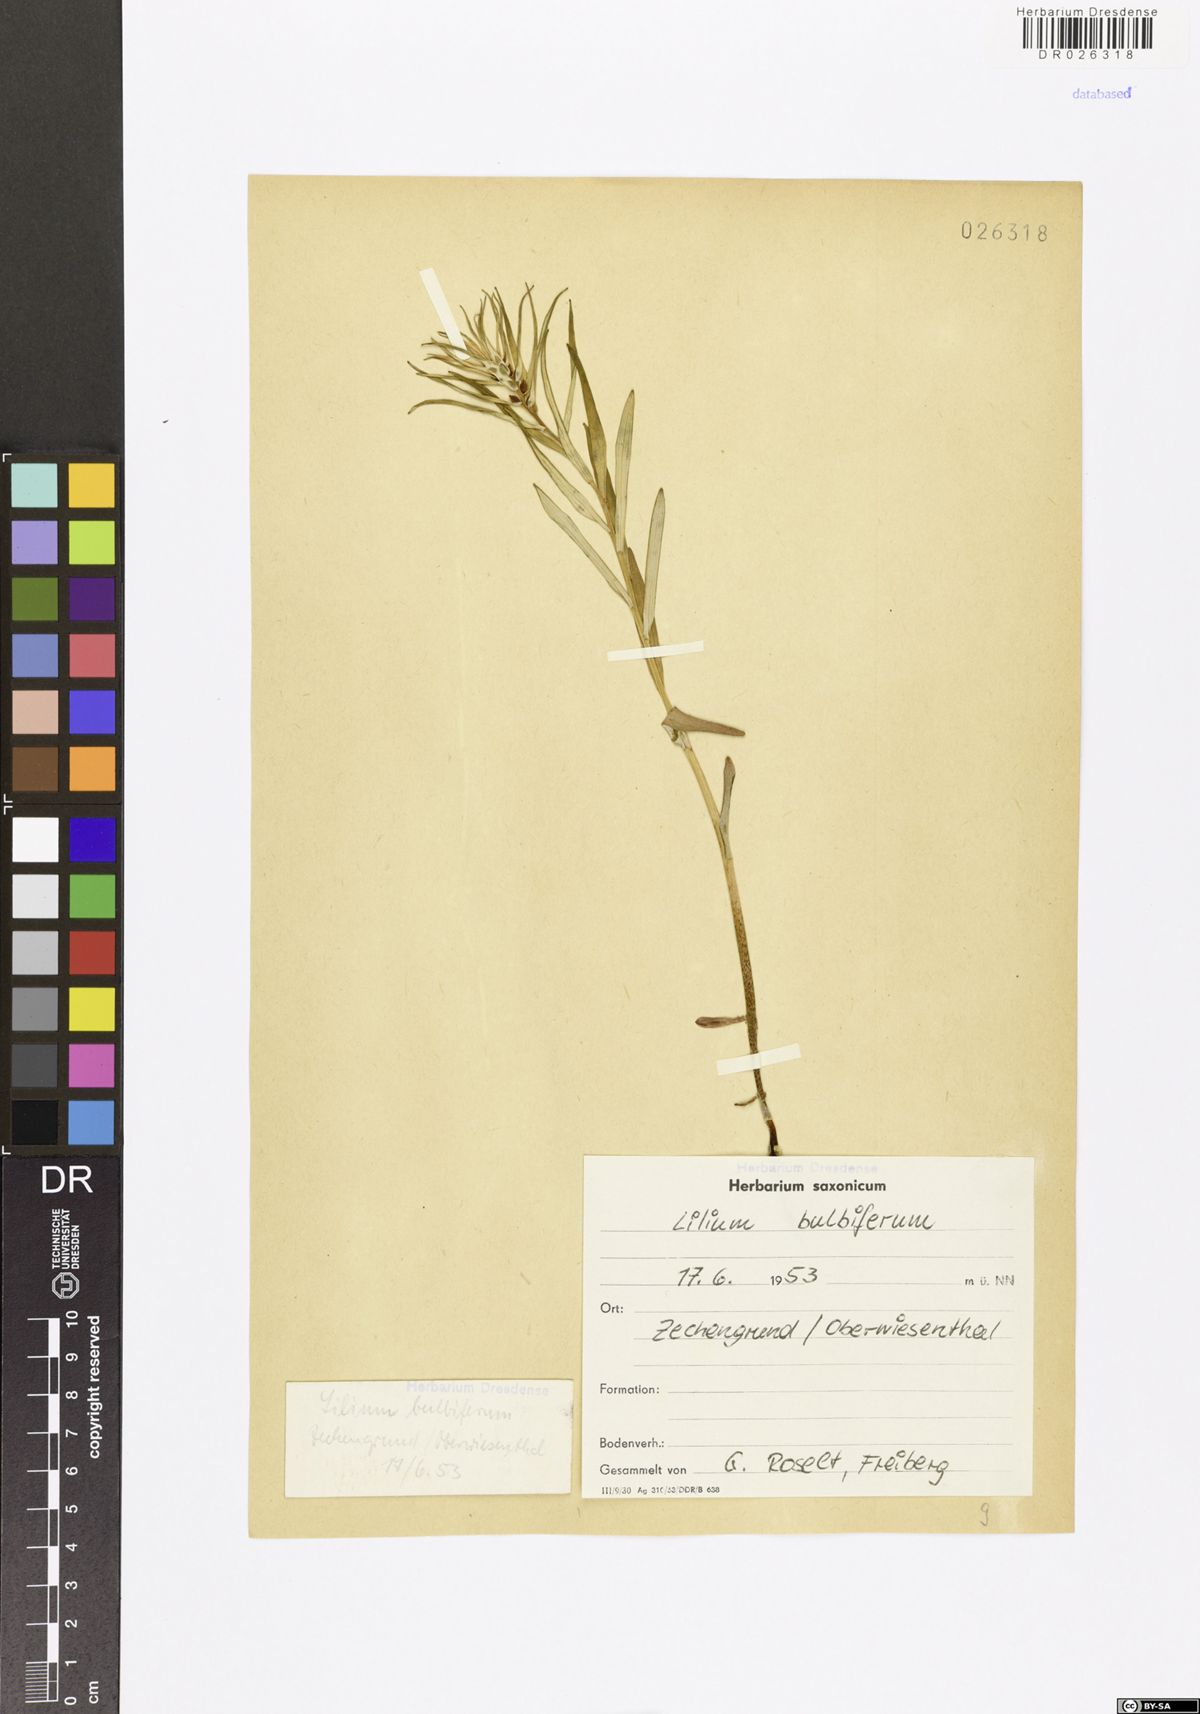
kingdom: Plantae
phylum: Tracheophyta
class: Liliopsida
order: Liliales
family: Liliaceae
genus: Lilium
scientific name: Lilium bulbiferum
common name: Orange lily
